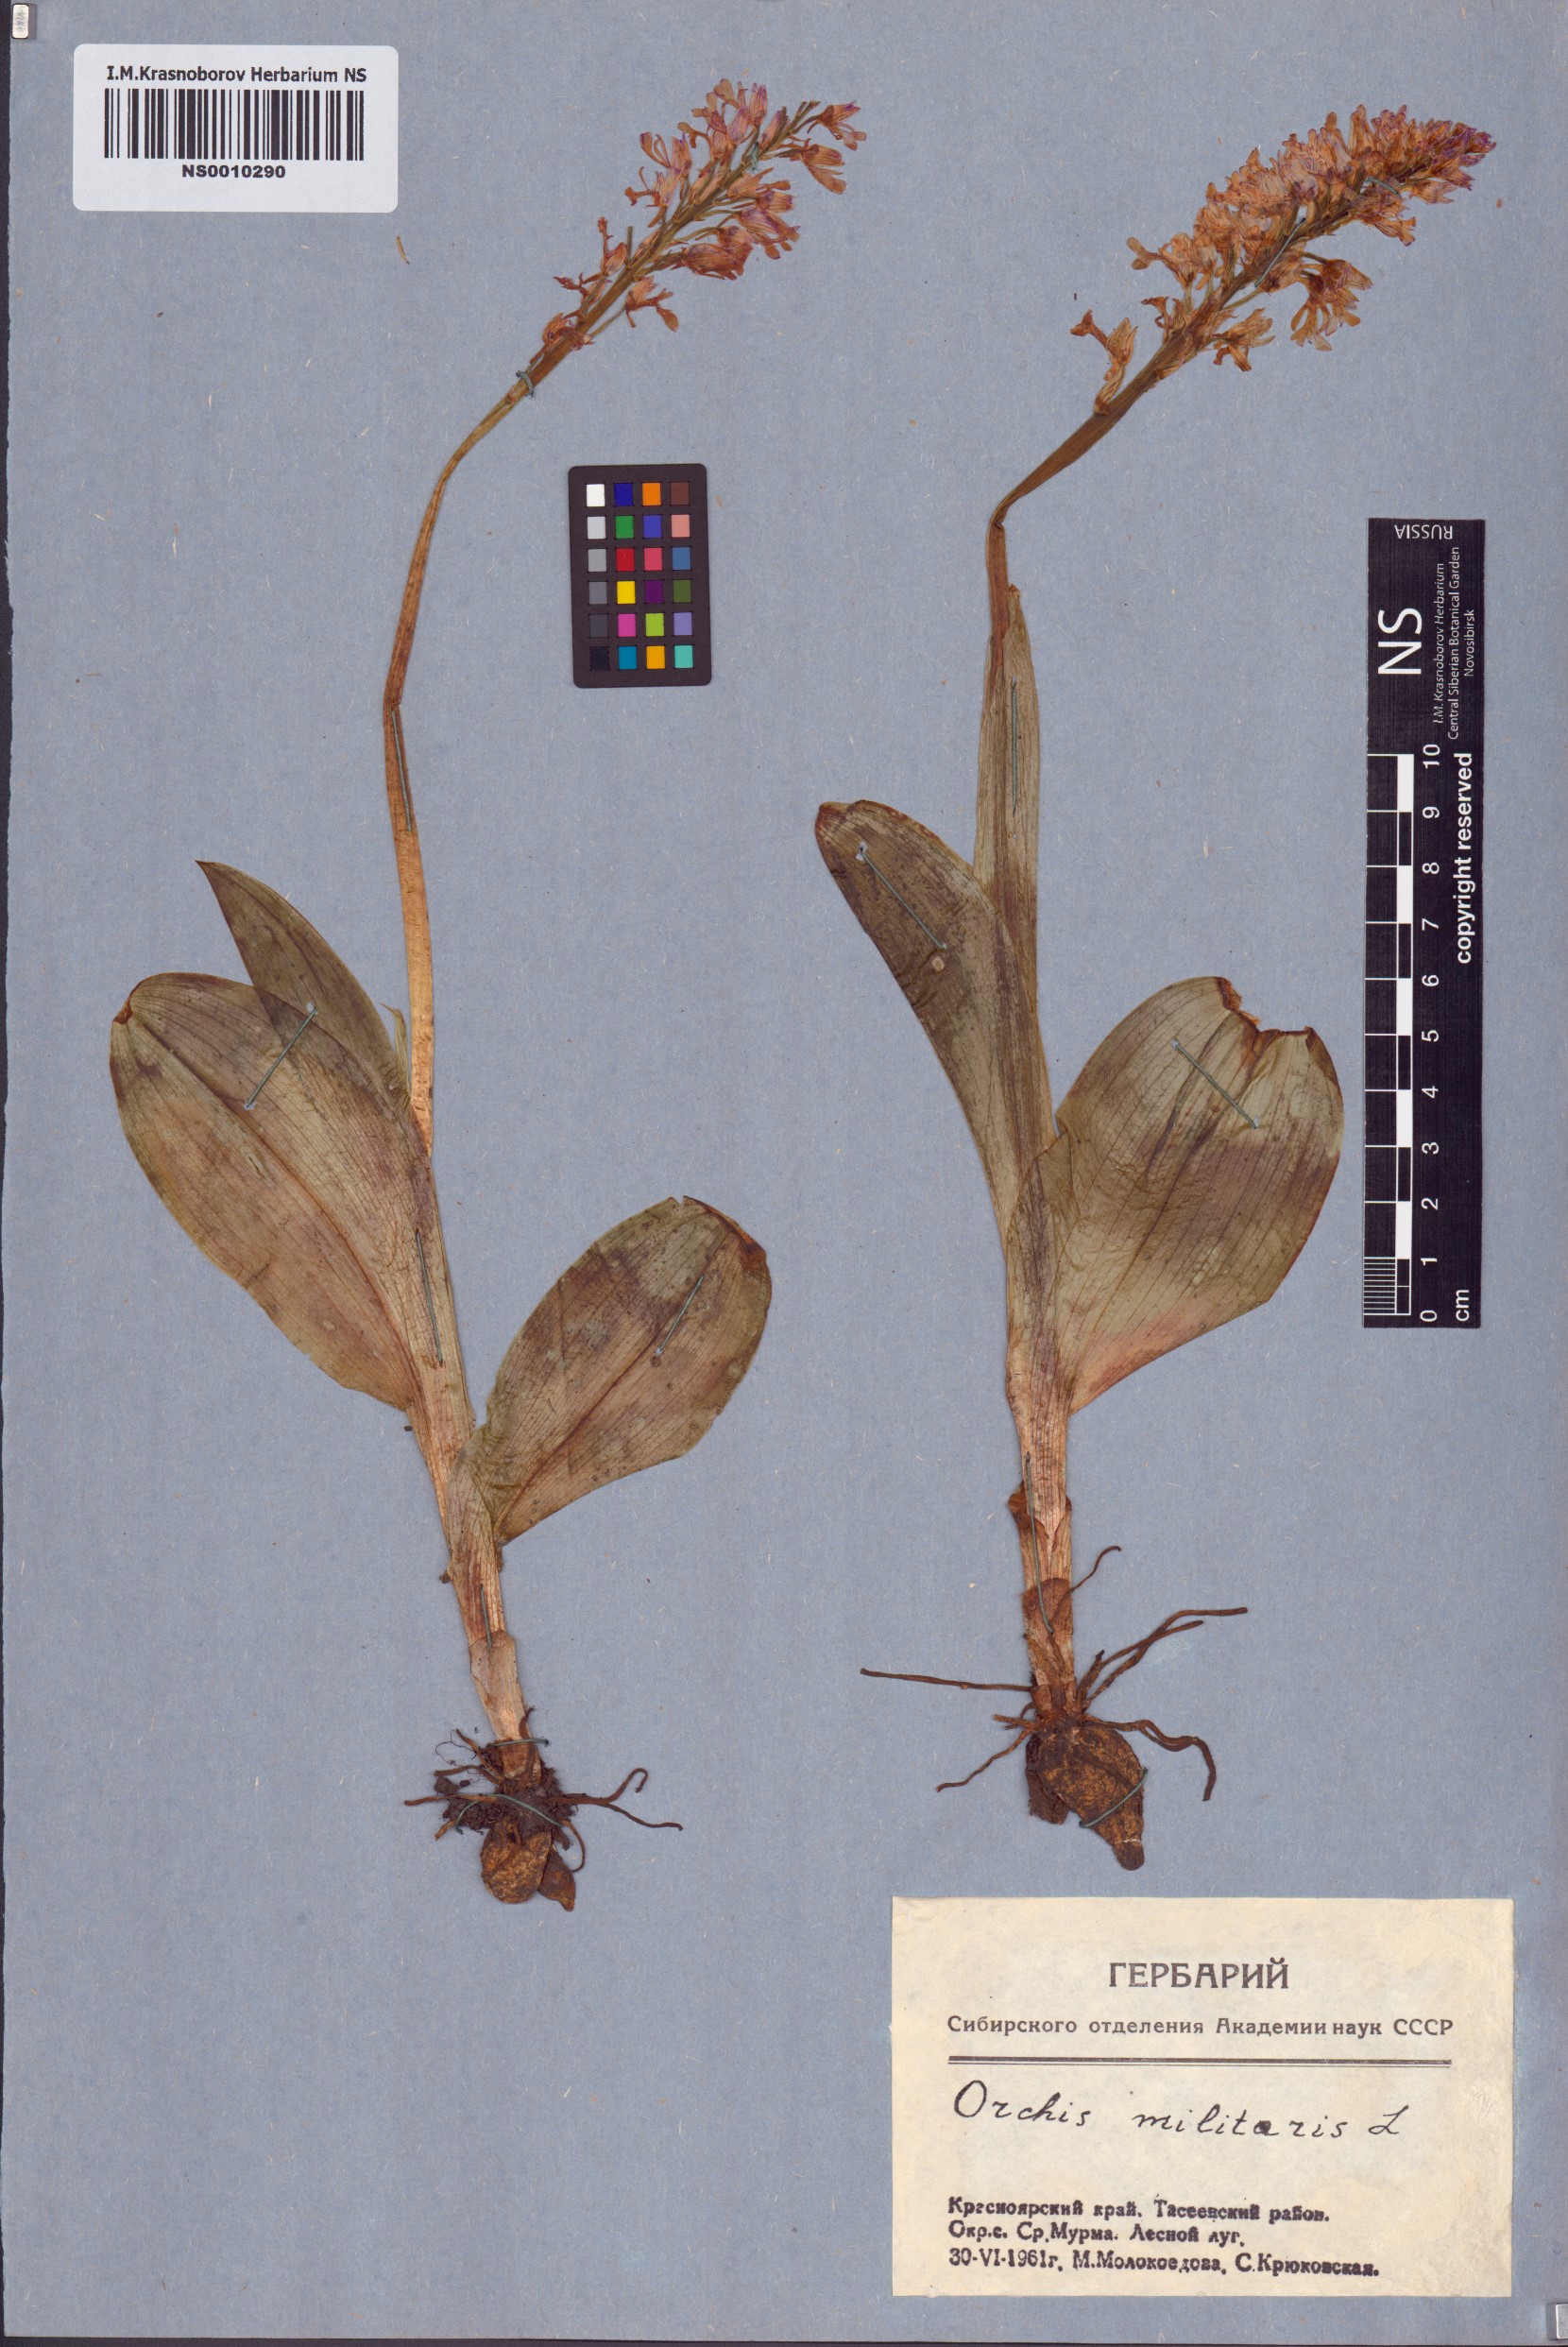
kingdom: Plantae
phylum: Tracheophyta
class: Liliopsida
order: Asparagales
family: Orchidaceae
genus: Orchis
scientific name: Orchis militaris
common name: Military orchid
